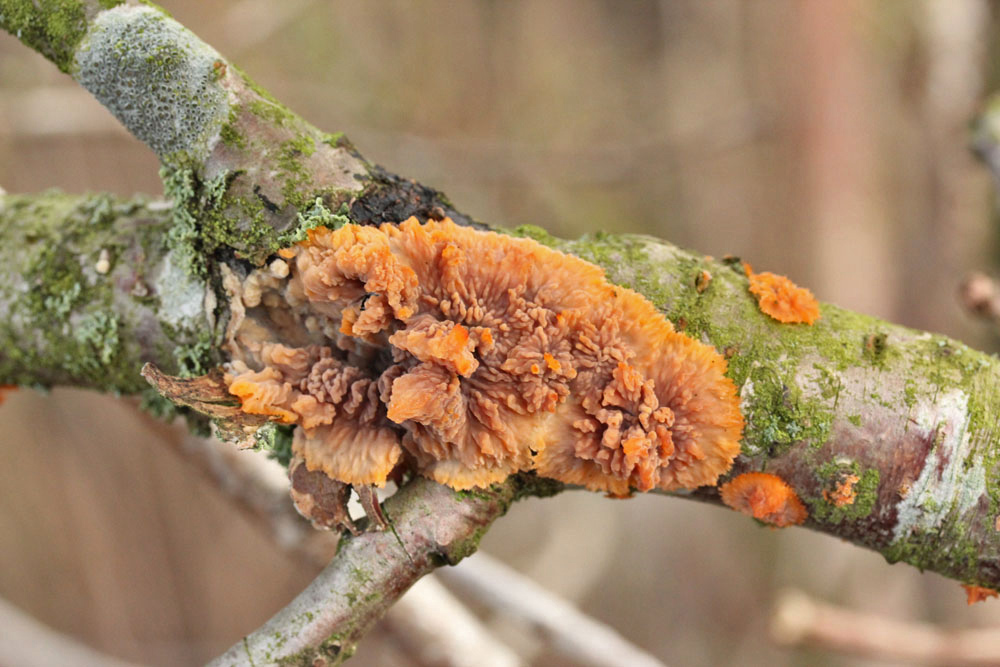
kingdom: Fungi
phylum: Basidiomycota
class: Agaricomycetes
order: Polyporales
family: Meruliaceae
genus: Phlebia
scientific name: Phlebia radiata
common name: stråle-åresvamp
